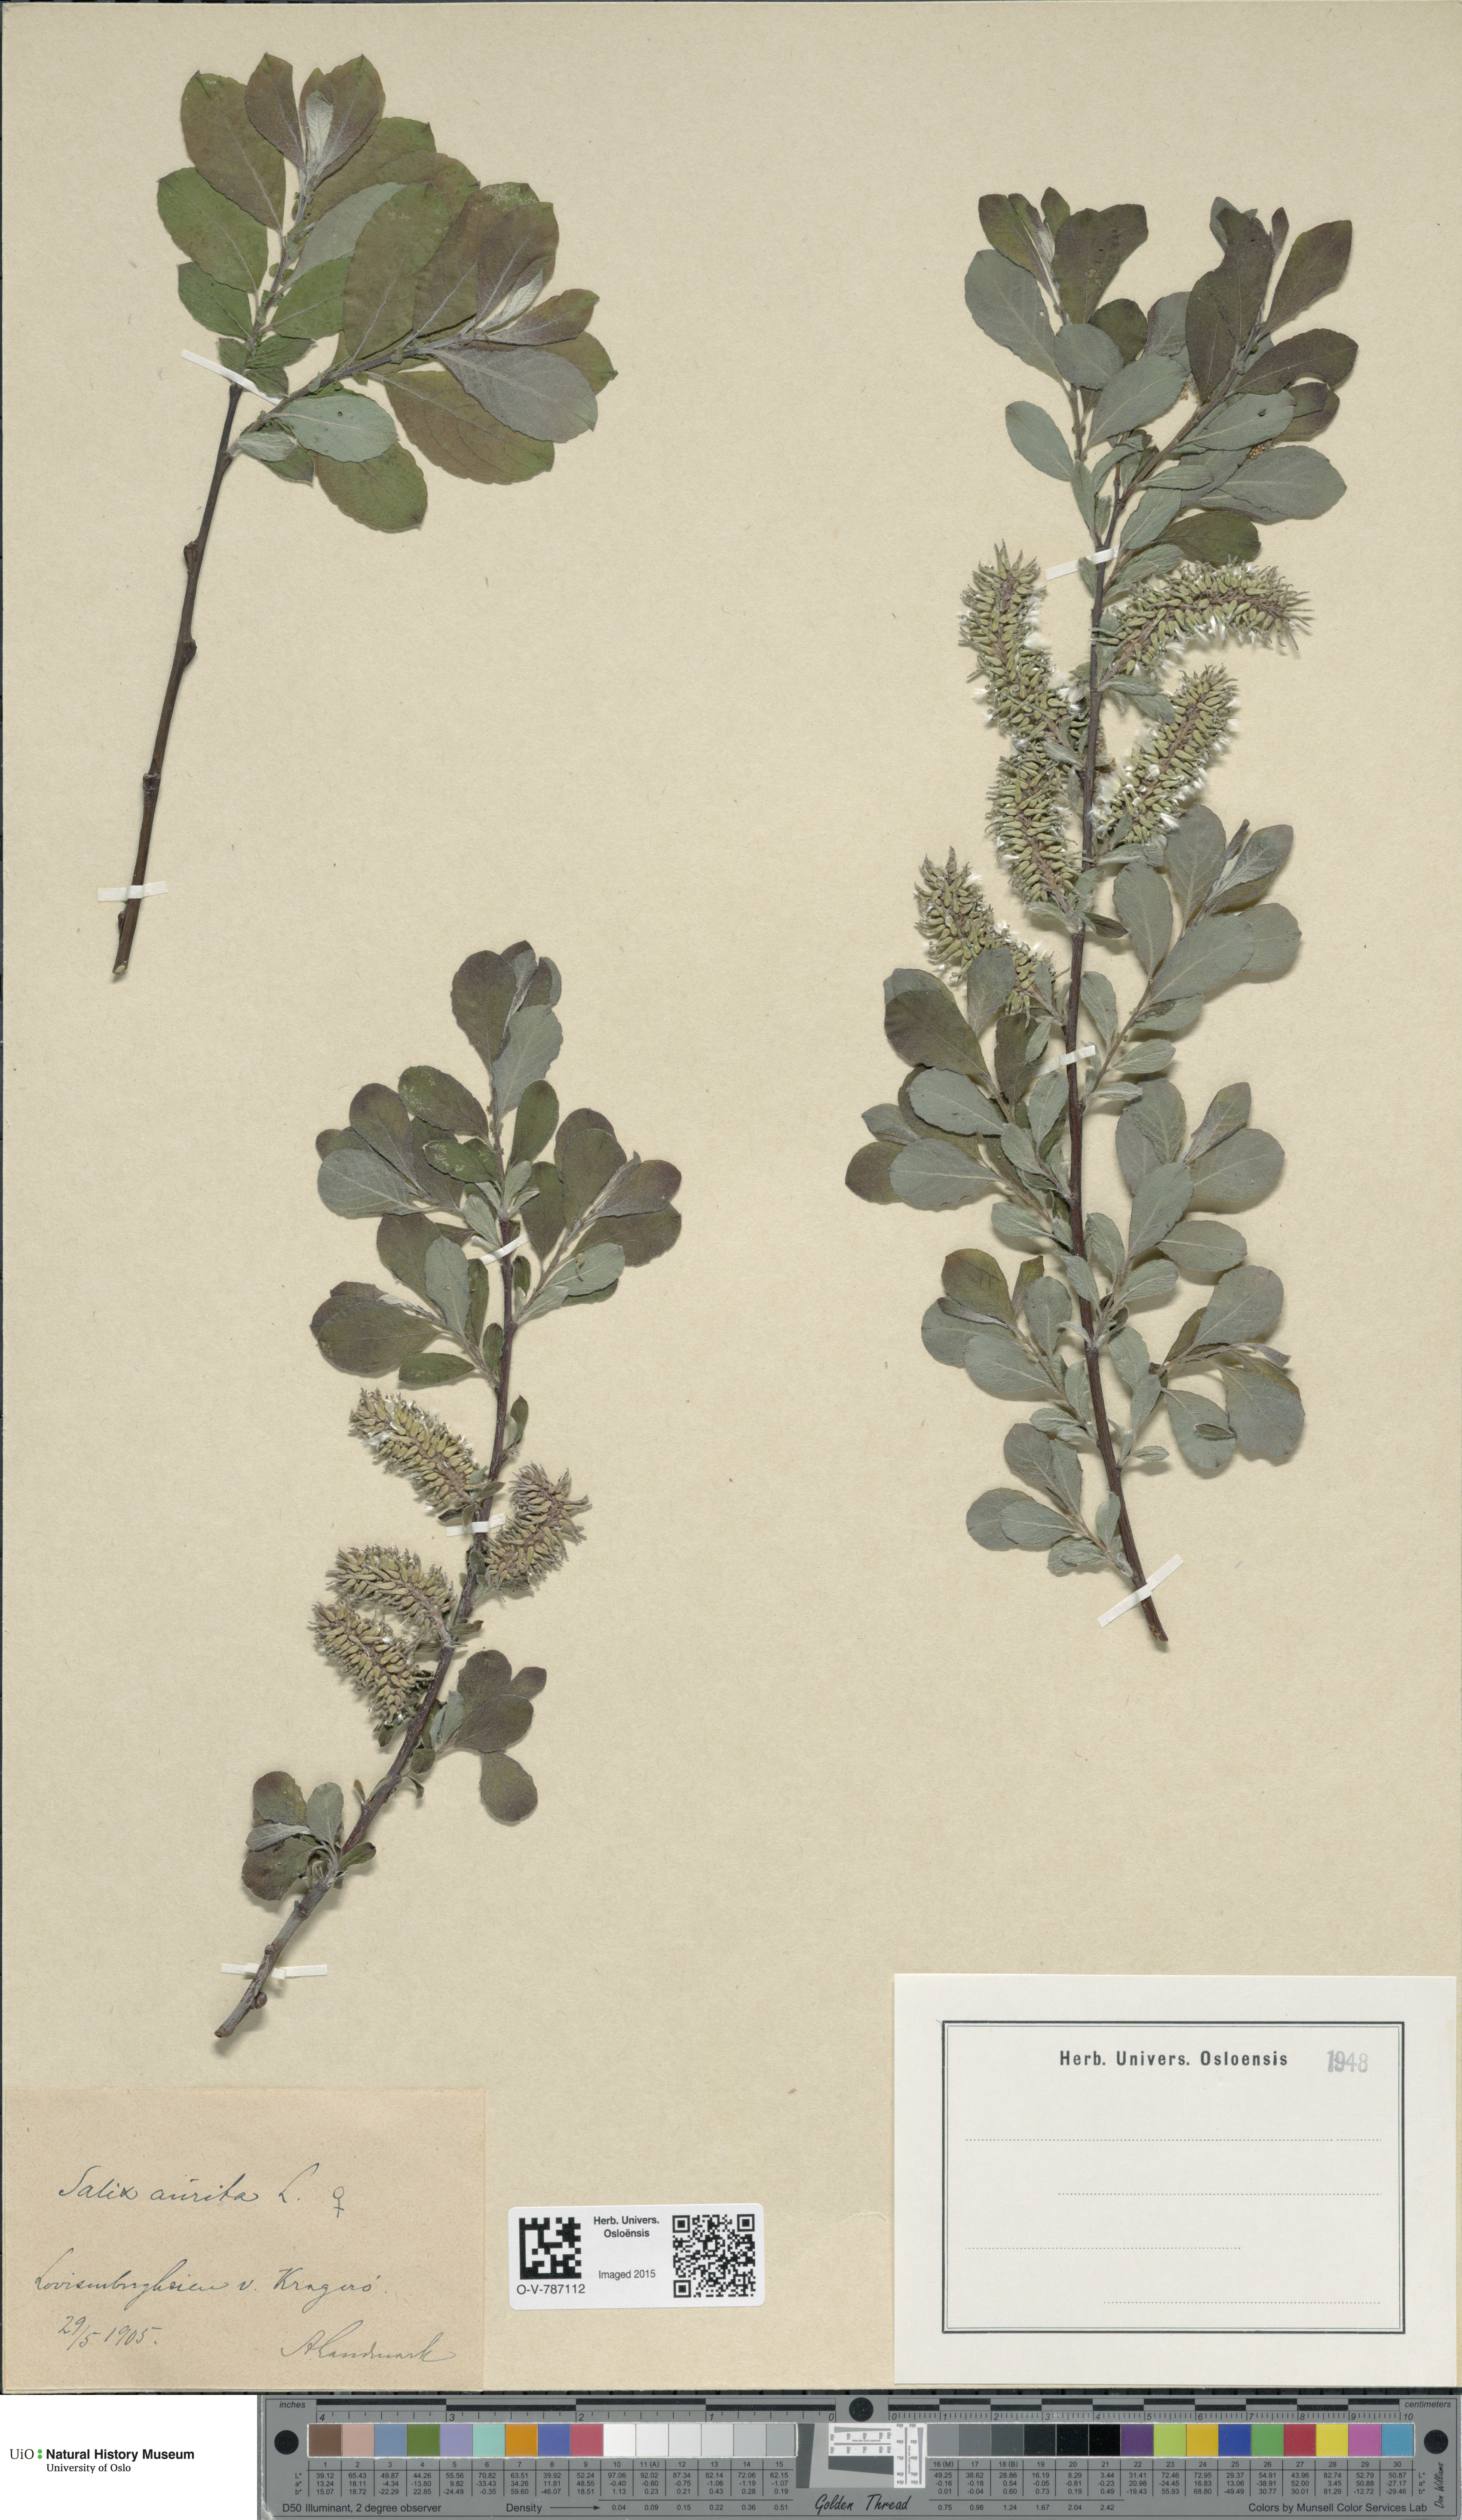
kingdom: Plantae
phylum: Tracheophyta
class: Magnoliopsida
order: Malpighiales
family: Salicaceae
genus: Salix
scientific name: Salix aurita
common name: Eared willow
